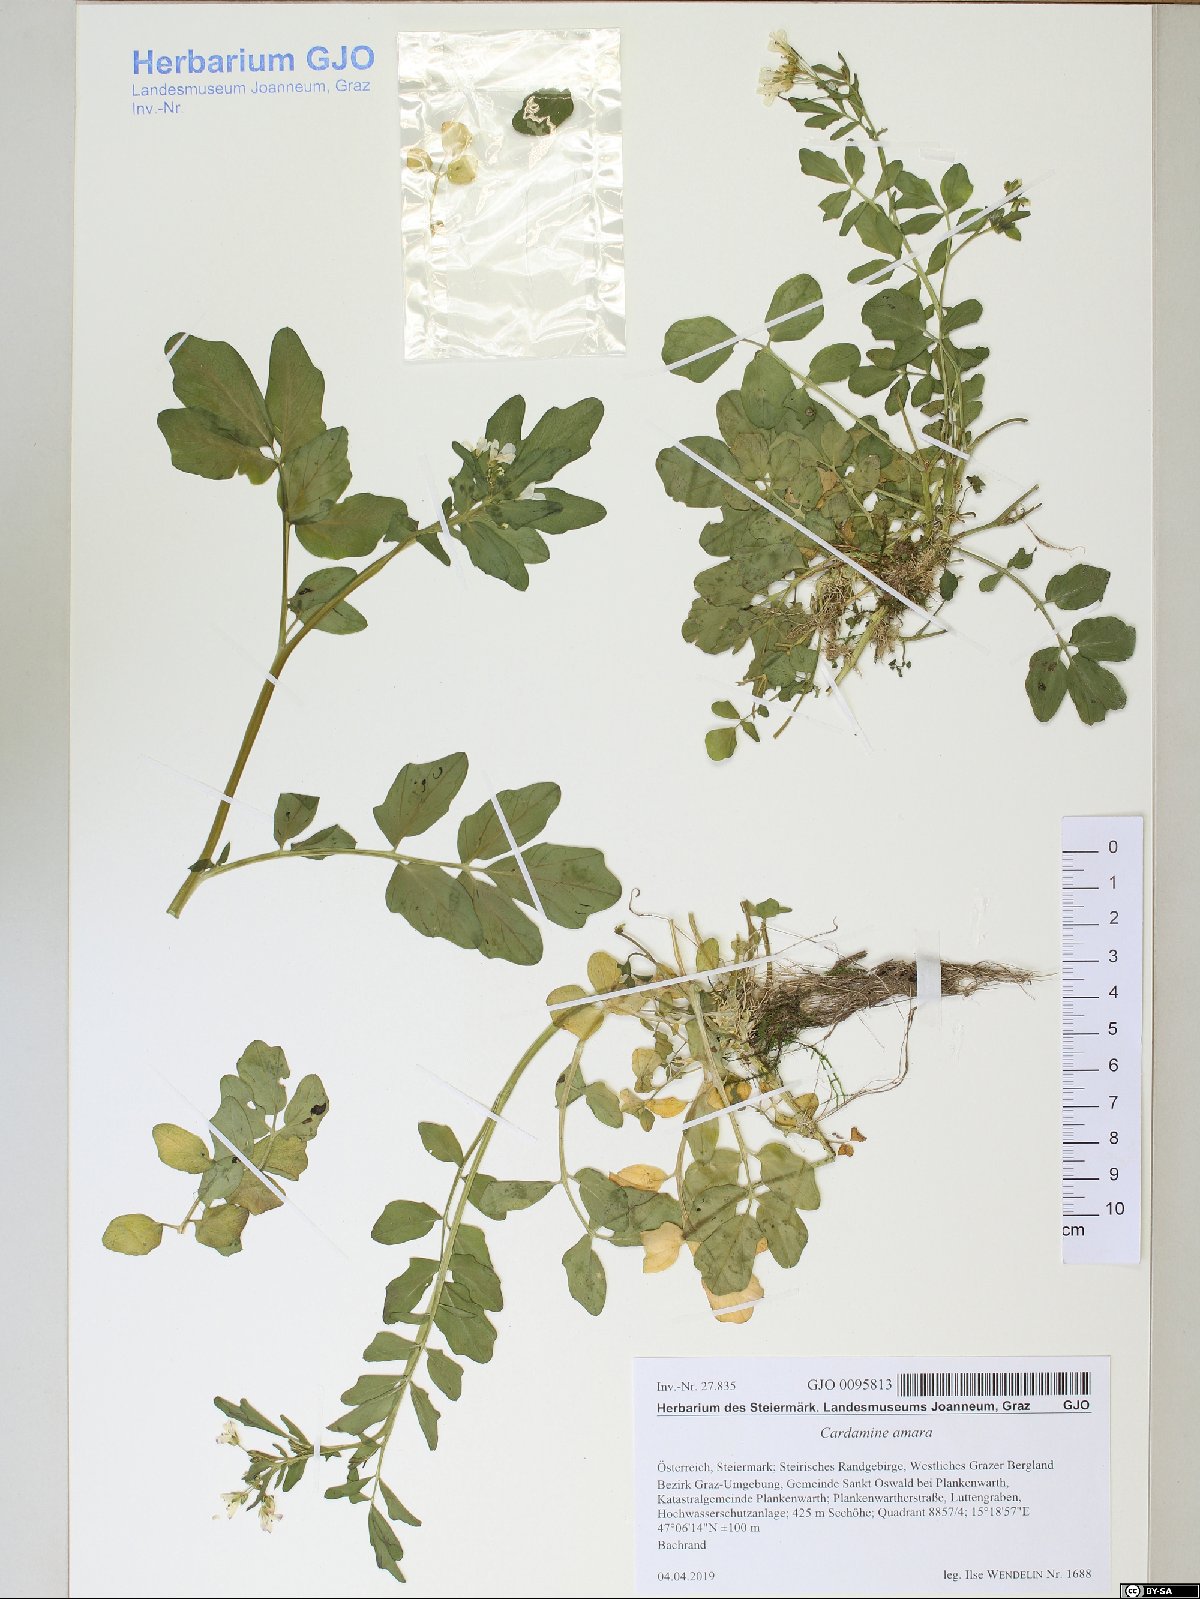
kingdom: Plantae
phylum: Tracheophyta
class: Magnoliopsida
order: Brassicales
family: Brassicaceae
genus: Cardamine
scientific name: Cardamine amara
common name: Large bitter-cress
